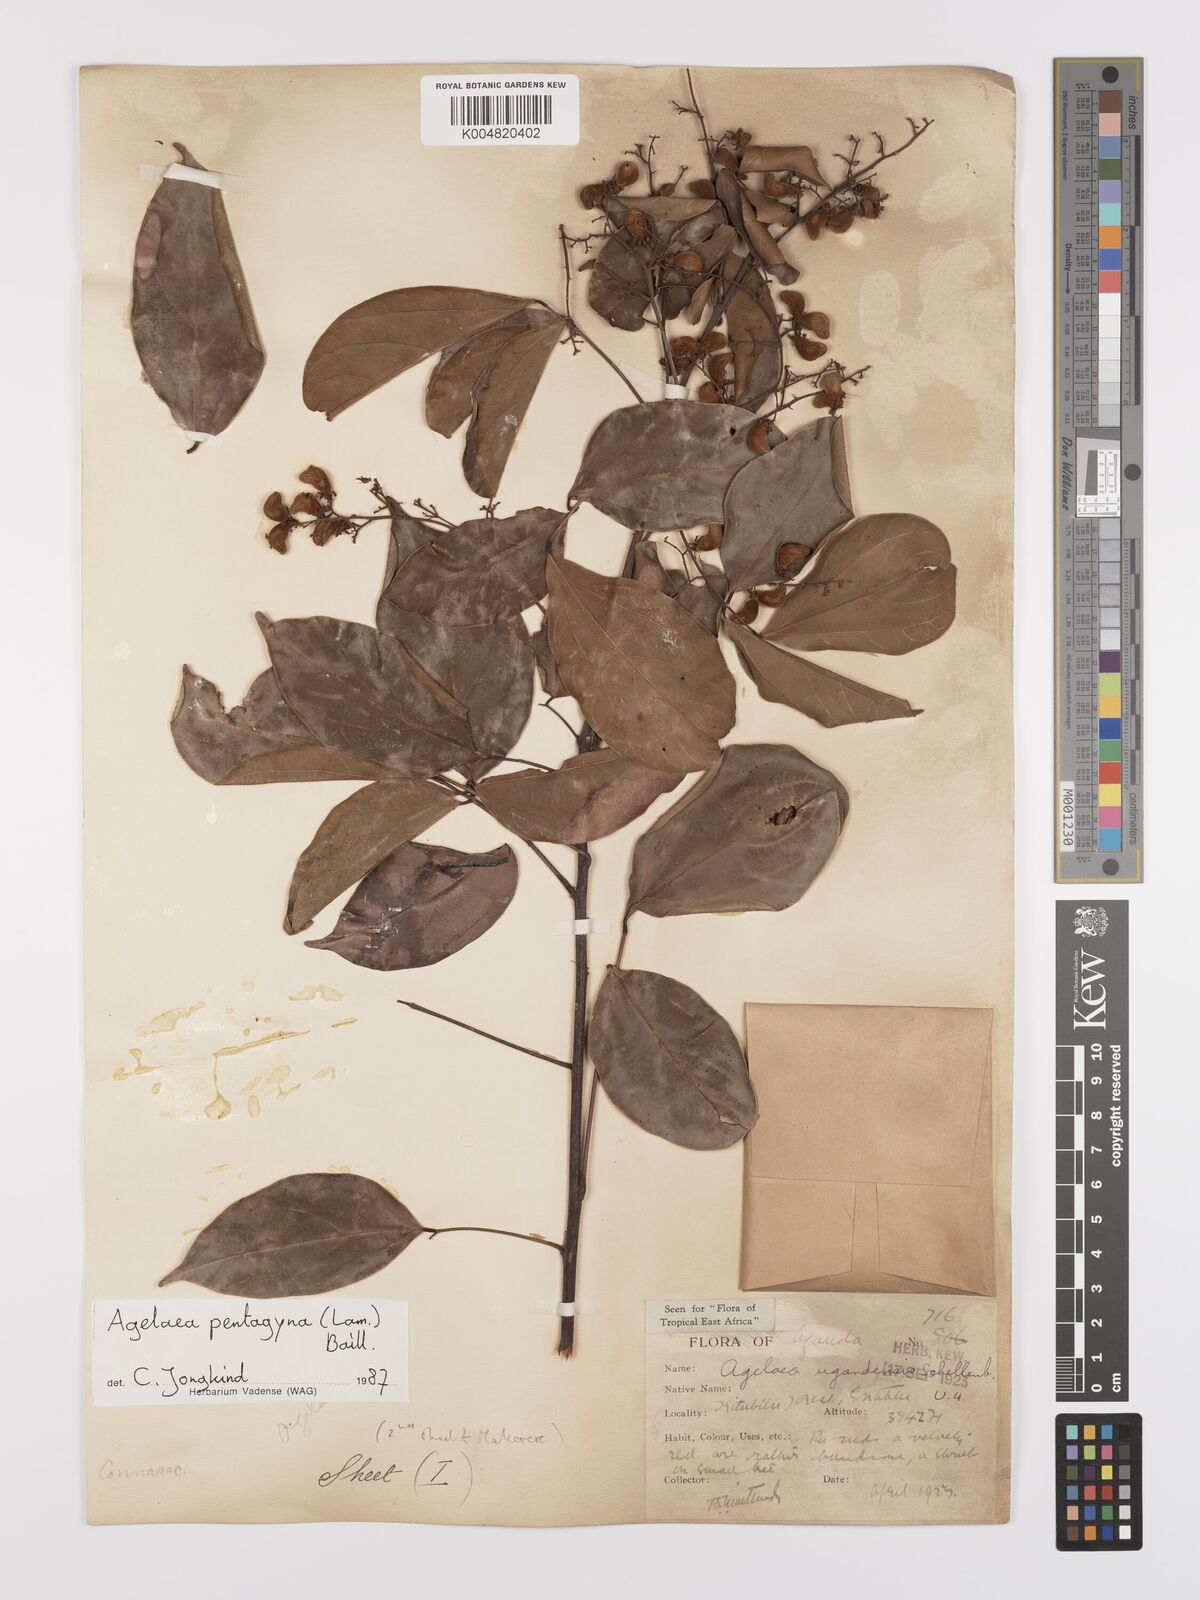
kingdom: Plantae
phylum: Tracheophyta
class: Magnoliopsida
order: Oxalidales
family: Connaraceae
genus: Agelaea
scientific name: Agelaea pentagyna
